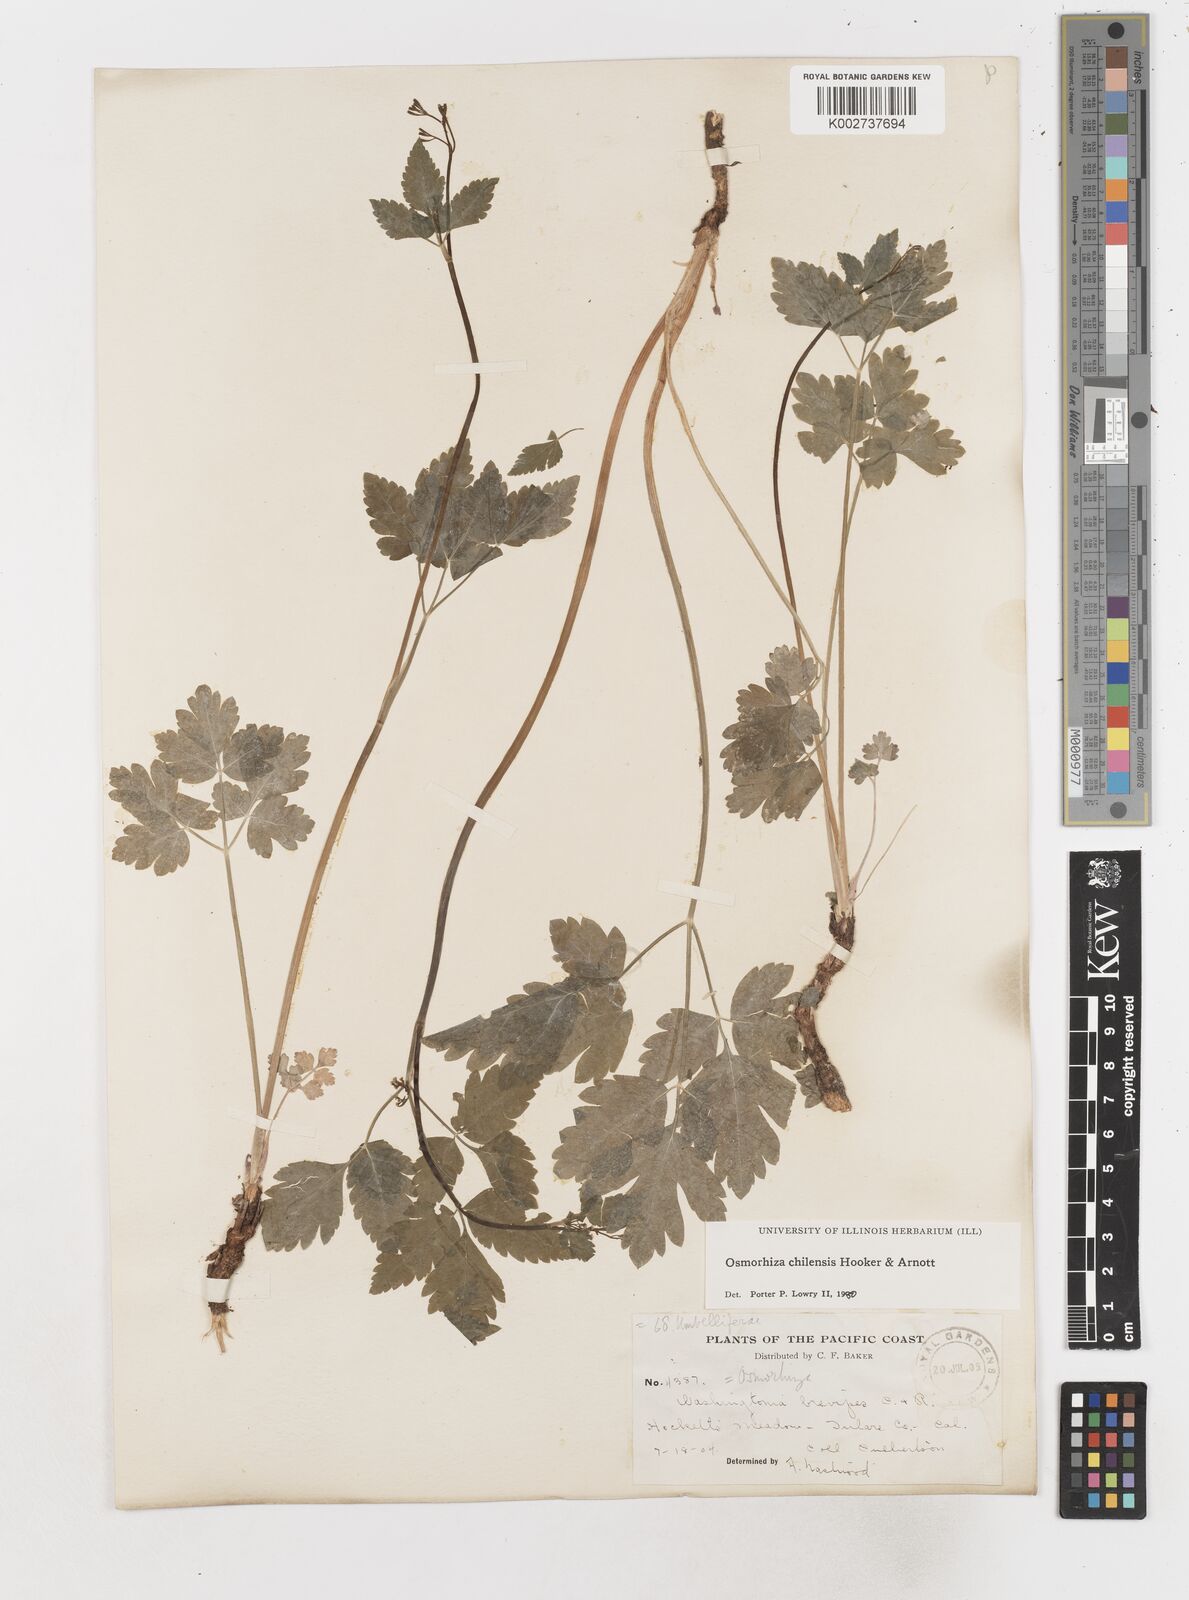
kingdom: Plantae
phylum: Tracheophyta
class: Magnoliopsida
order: Apiales
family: Apiaceae
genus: Osmorhiza
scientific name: Osmorhiza berteroi
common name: Mountain sweet cicely
